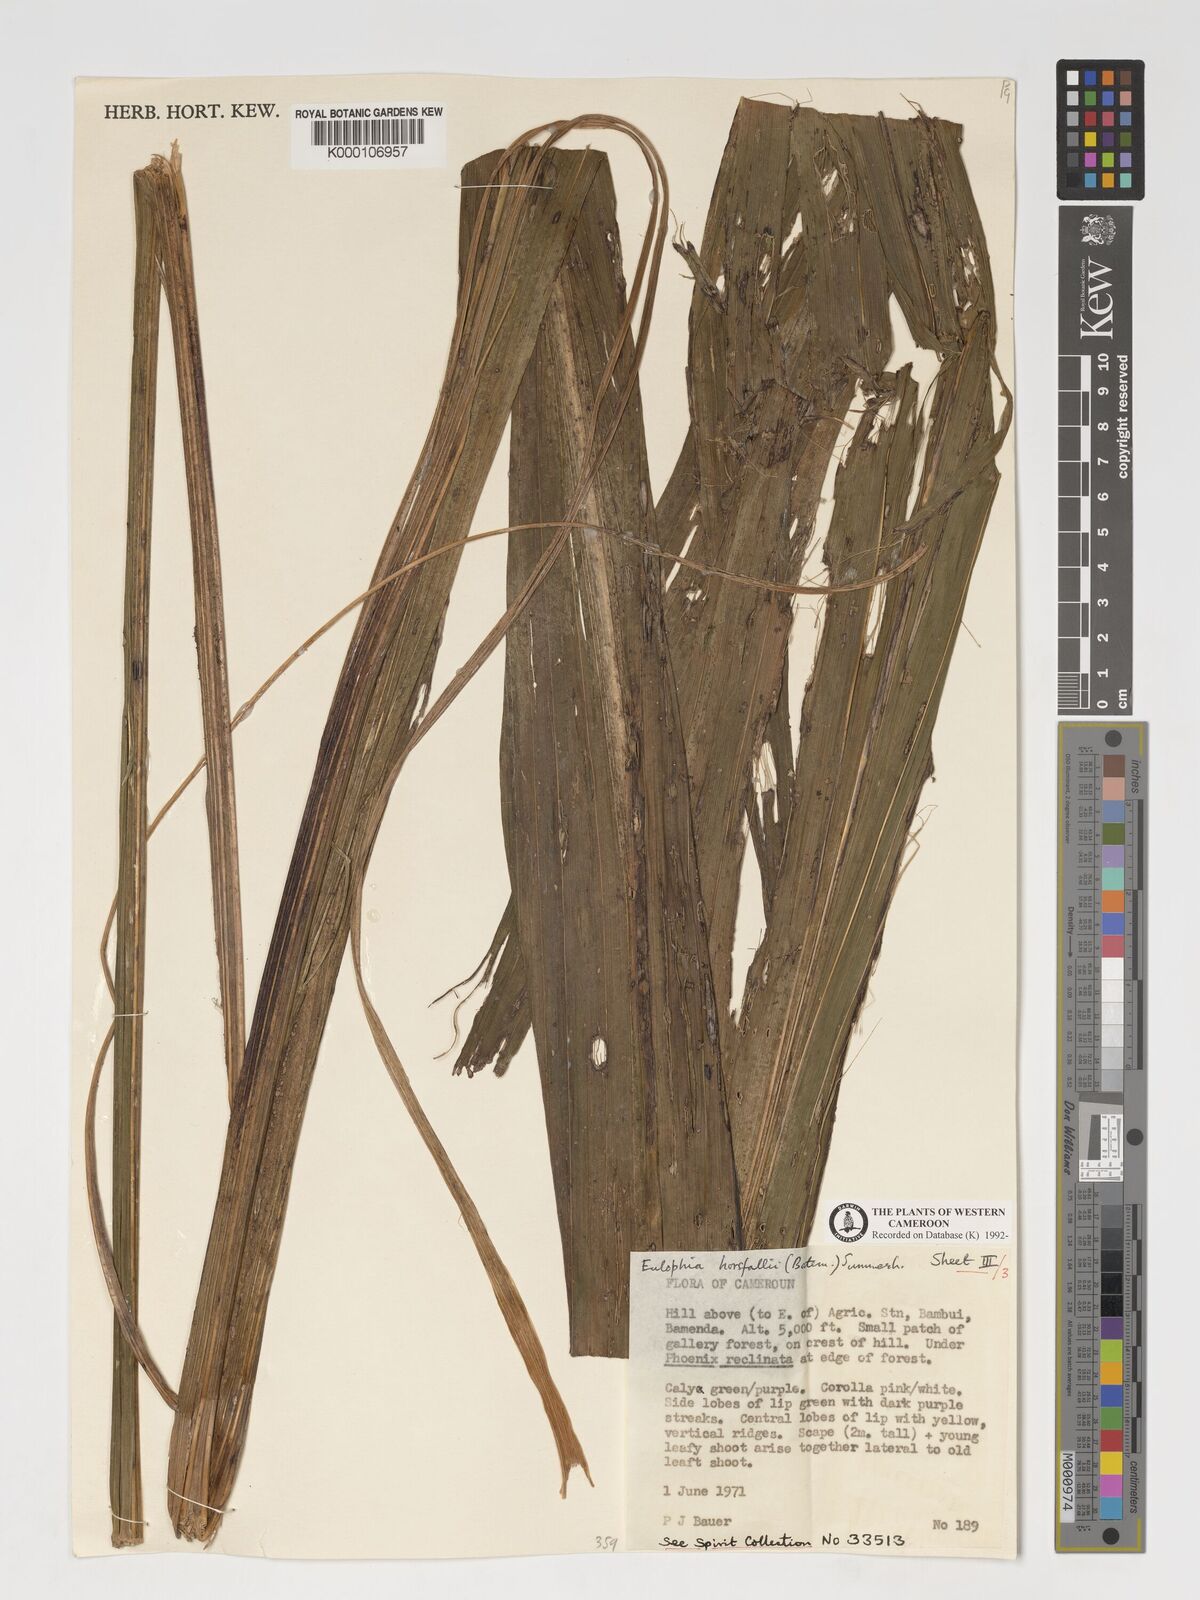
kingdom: Plantae
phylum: Tracheophyta
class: Liliopsida
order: Asparagales
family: Orchidaceae
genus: Eulophia
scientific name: Eulophia horsfallii
